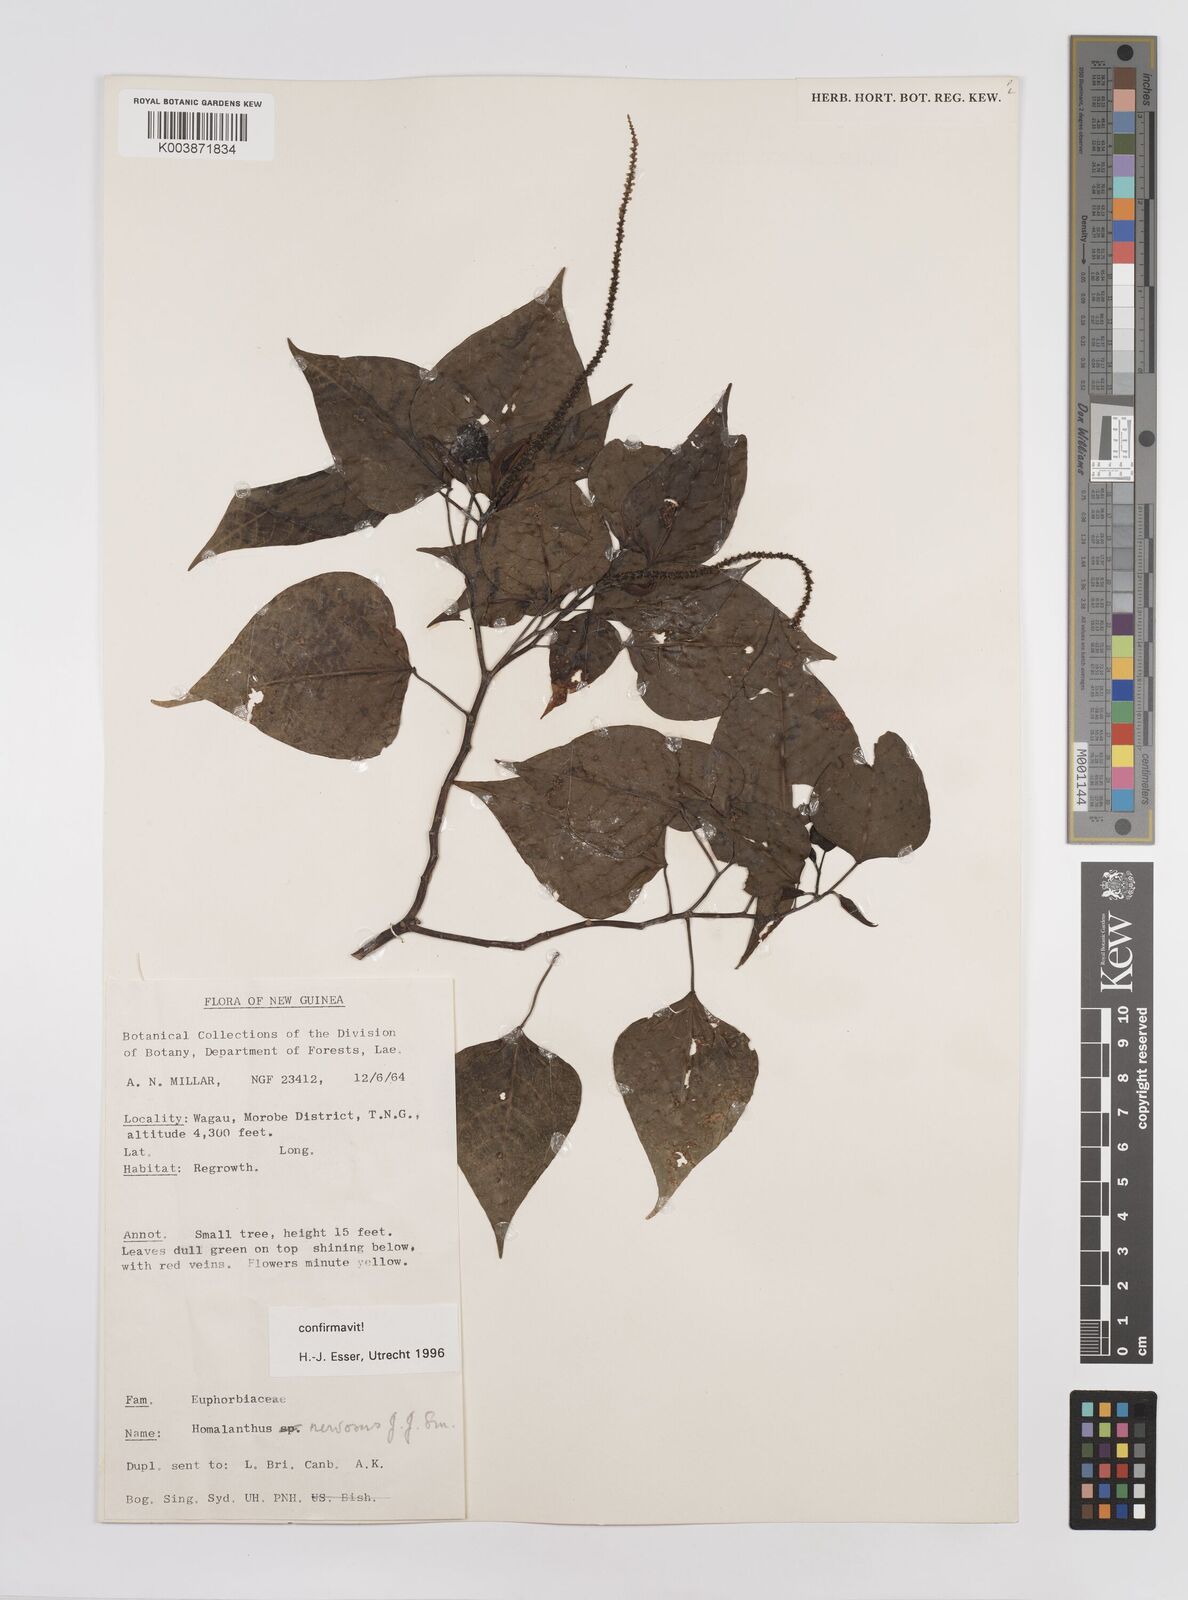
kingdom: Plantae
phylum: Tracheophyta
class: Magnoliopsida
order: Malpighiales
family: Euphorbiaceae
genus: Homalanthus
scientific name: Homalanthus nervosus
